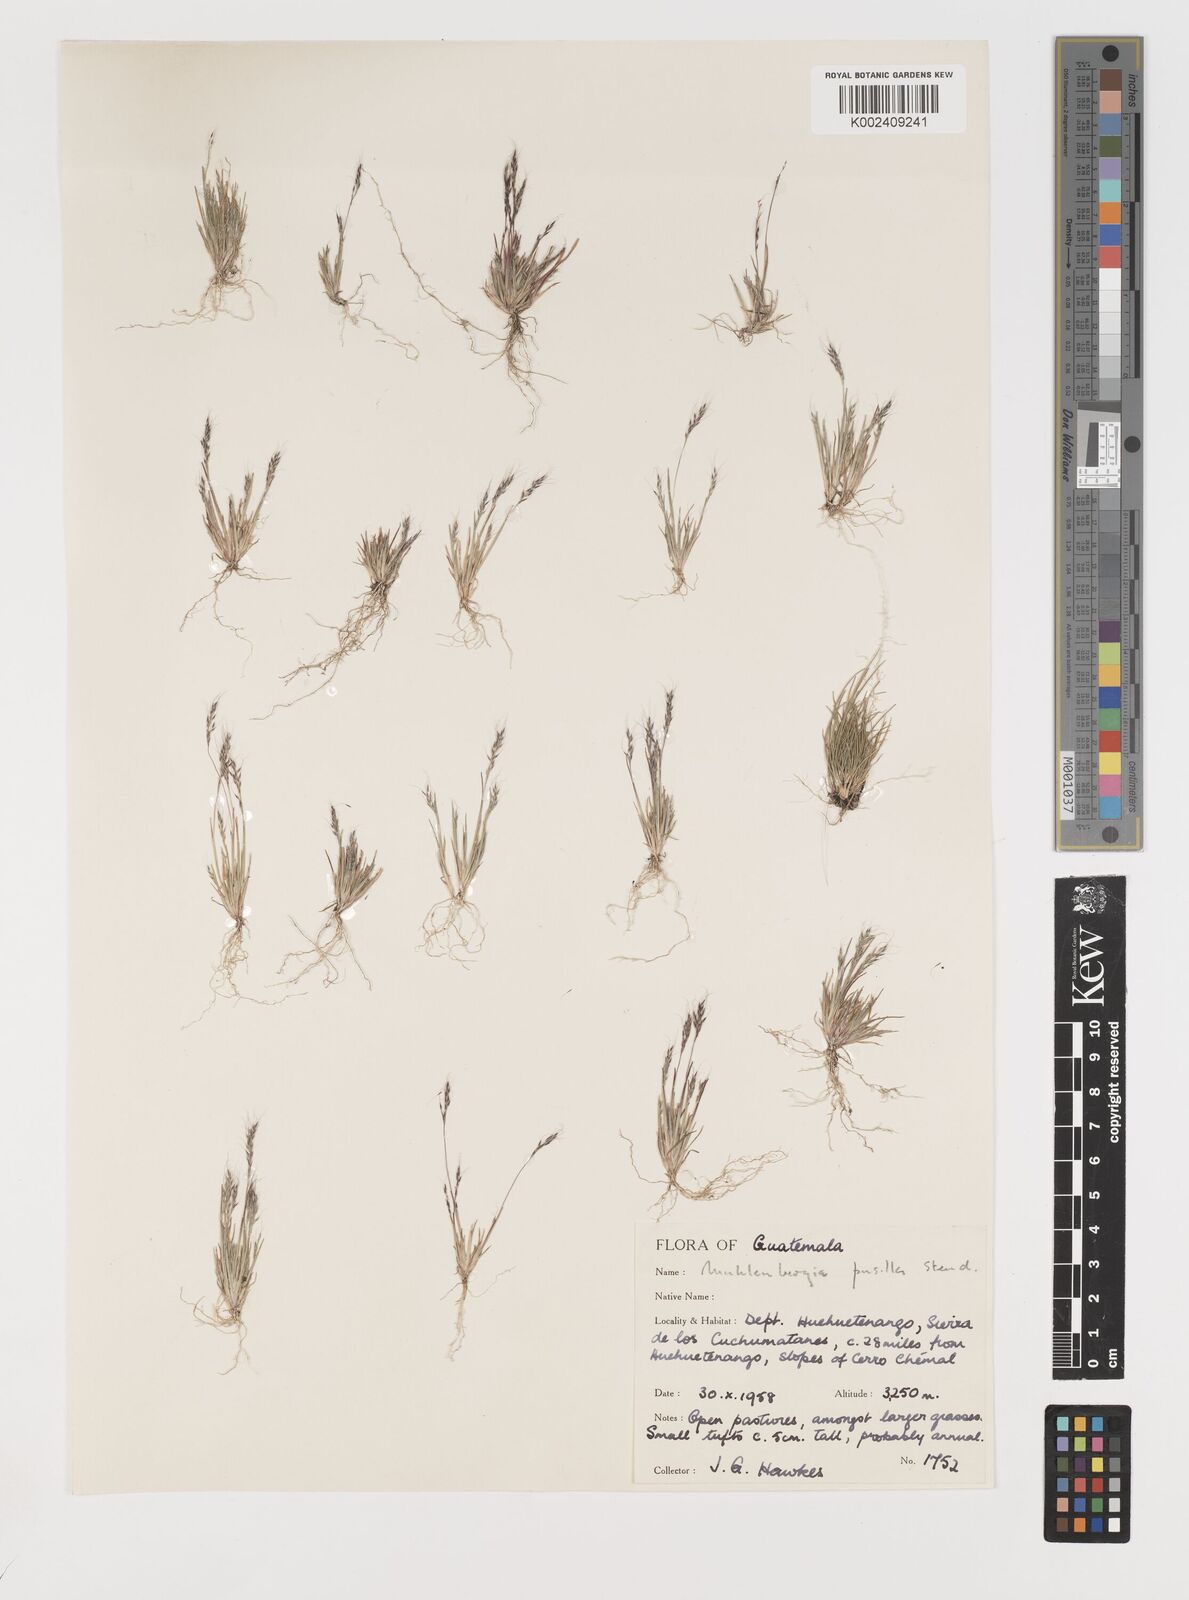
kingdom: Plantae
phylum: Tracheophyta
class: Liliopsida
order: Poales
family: Poaceae
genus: Muhlenbergia
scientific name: Muhlenbergia peruviana
